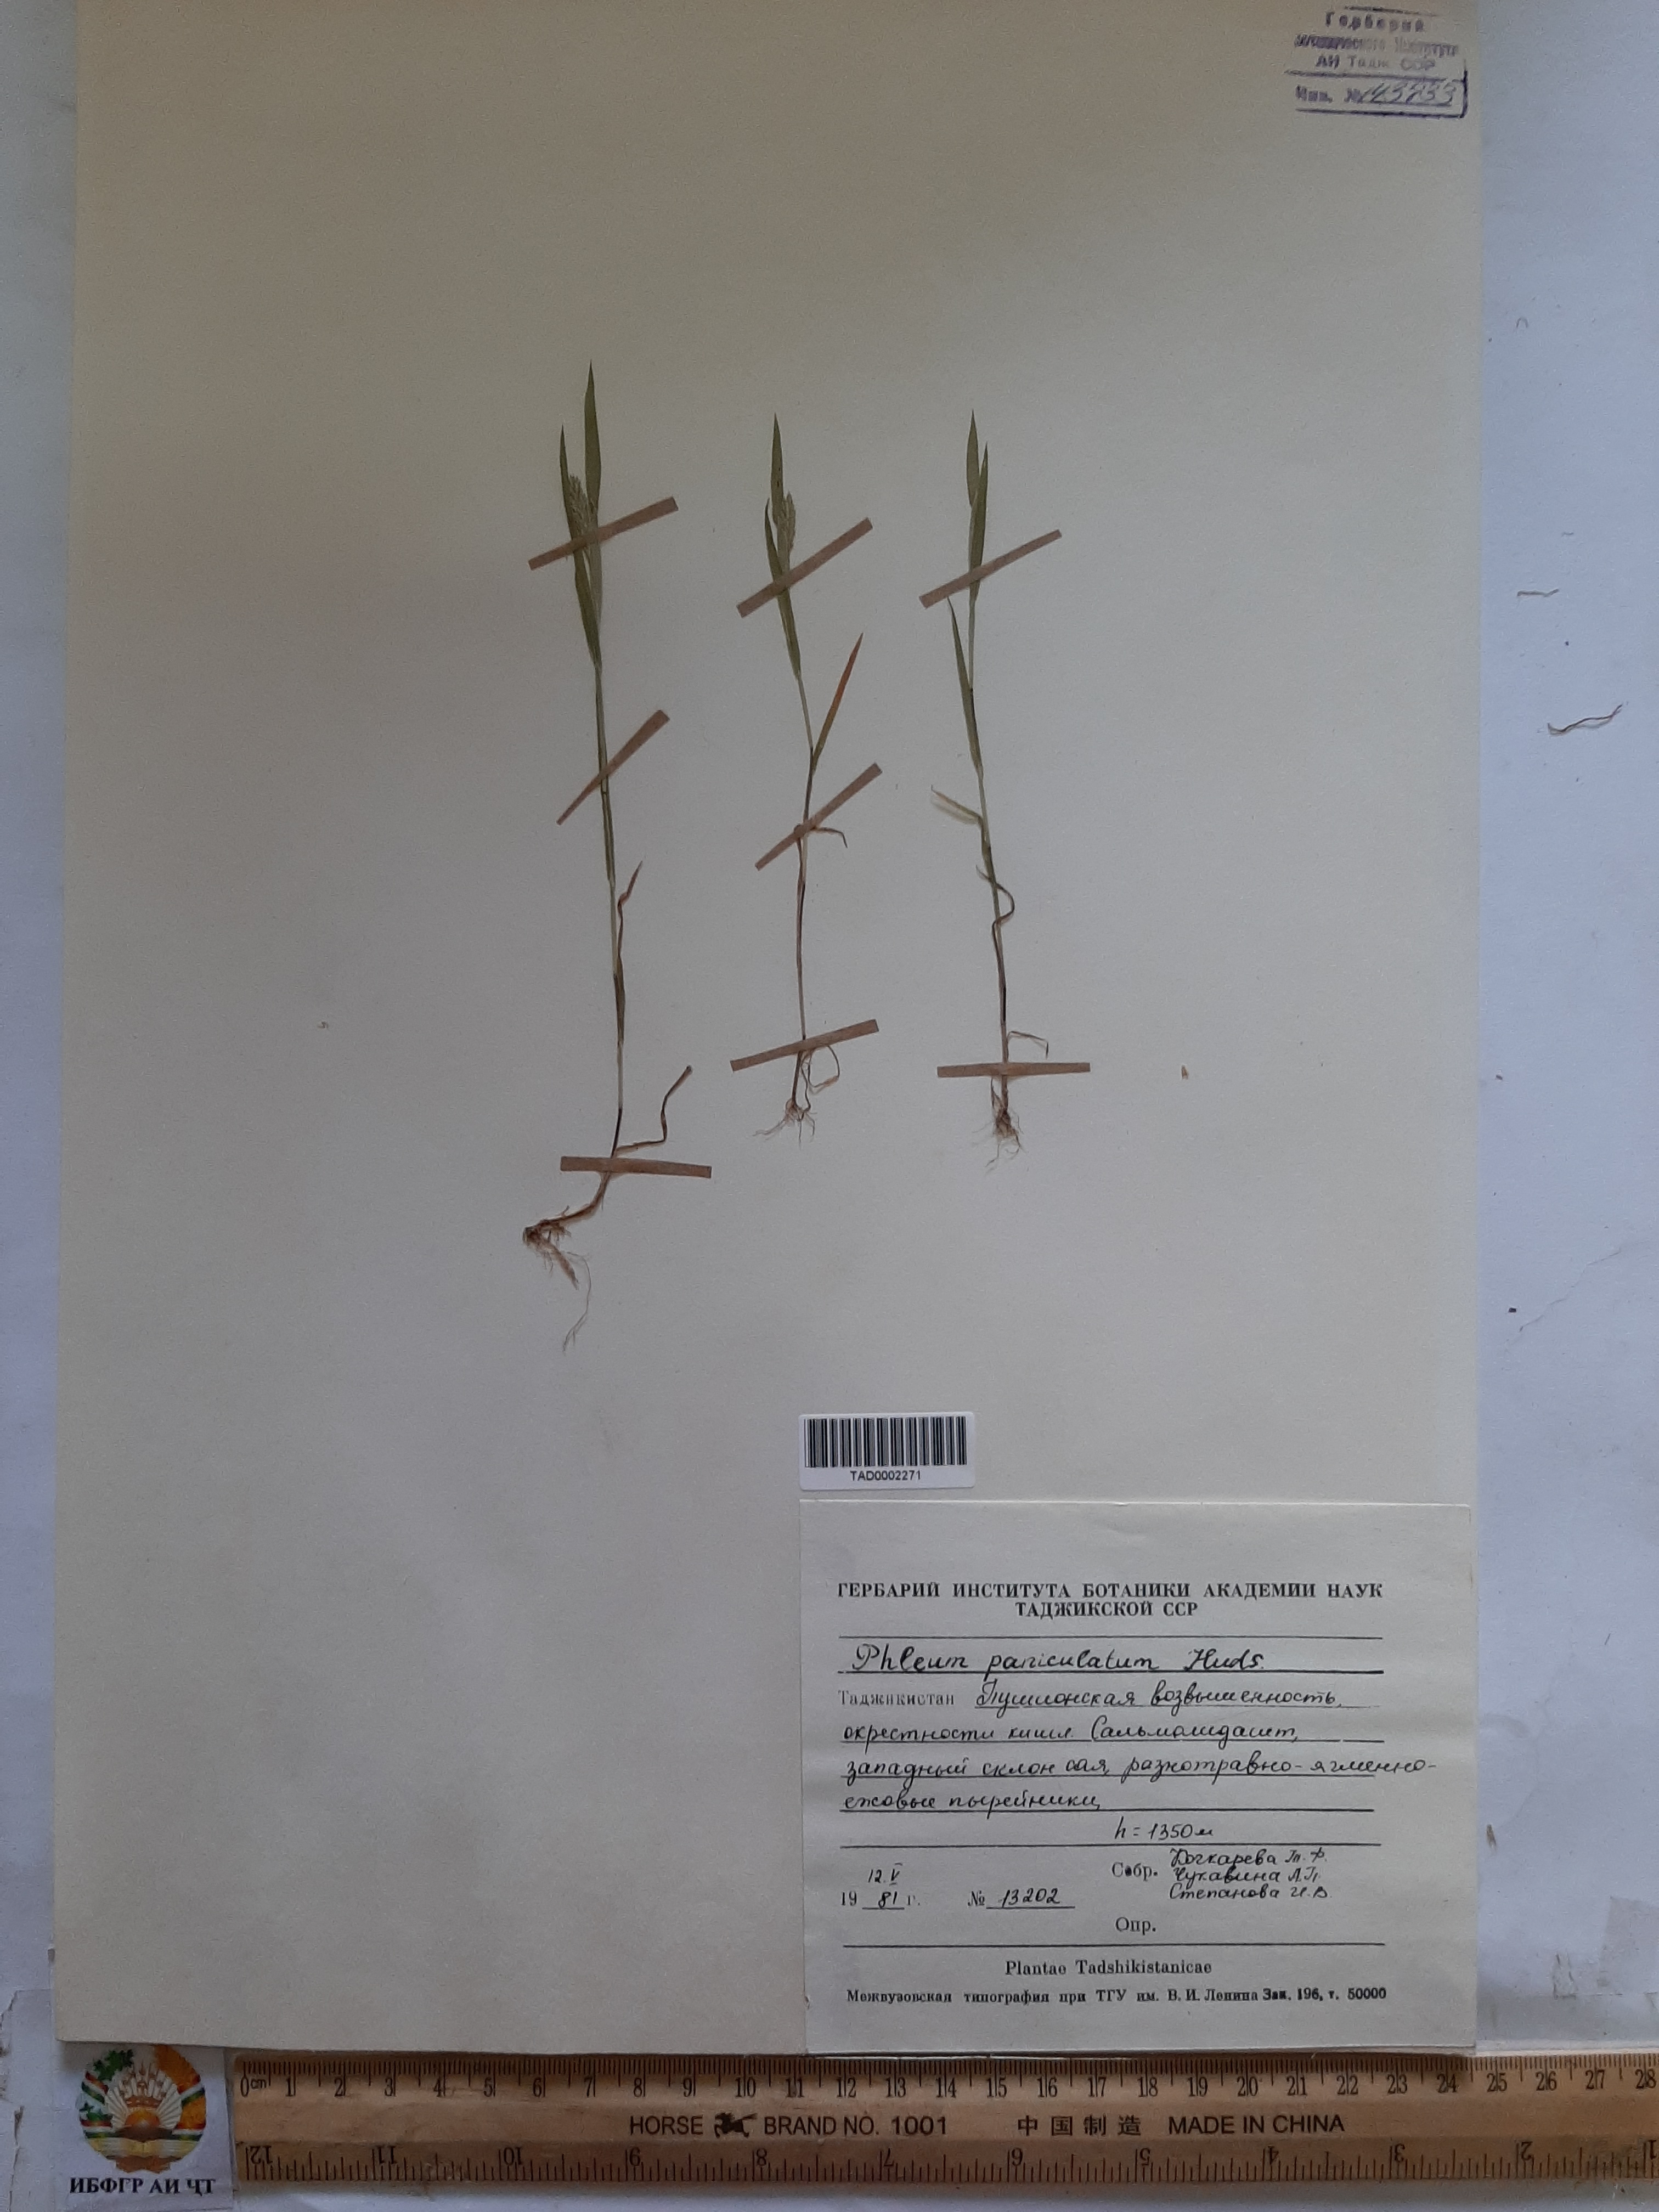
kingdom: Plantae
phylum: Tracheophyta
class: Liliopsida
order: Poales
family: Poaceae
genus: Phleum
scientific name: Phleum paniculatum
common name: British timothy
